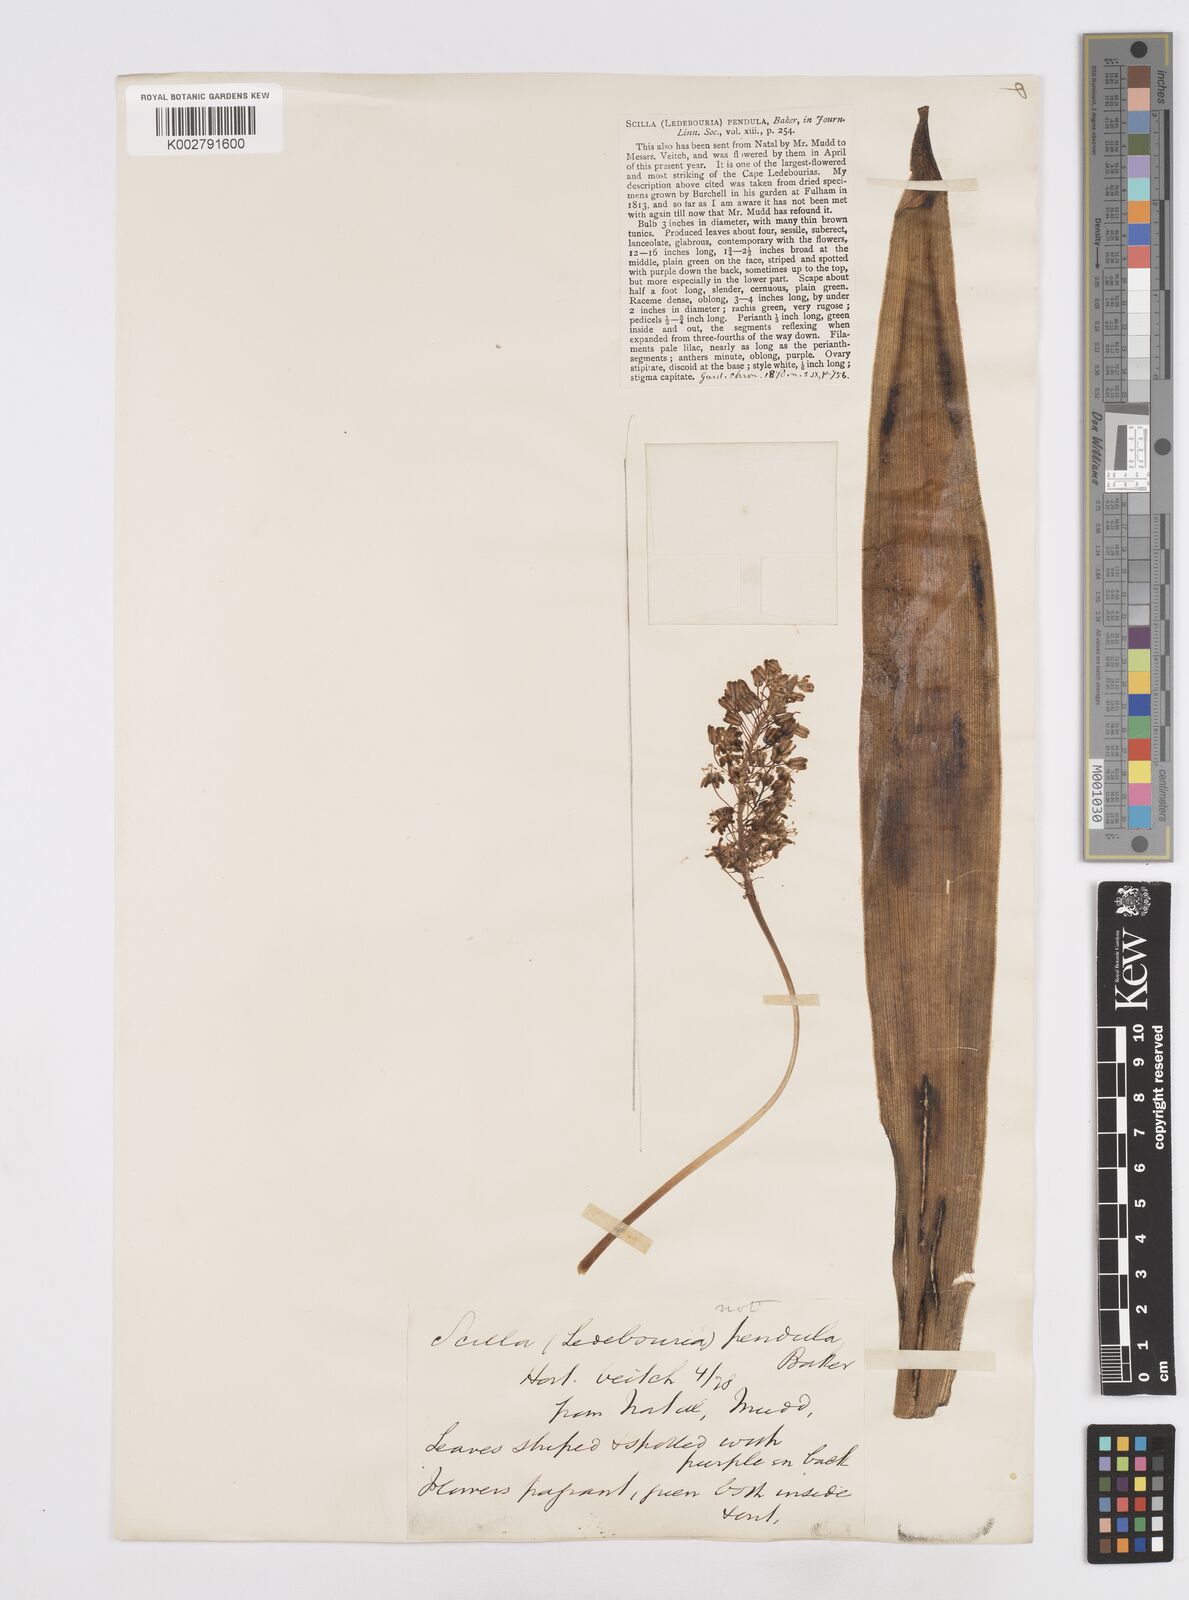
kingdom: Plantae
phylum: Tracheophyta
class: Liliopsida
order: Asparagales
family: Asparagaceae
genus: Scilla
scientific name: Scilla
